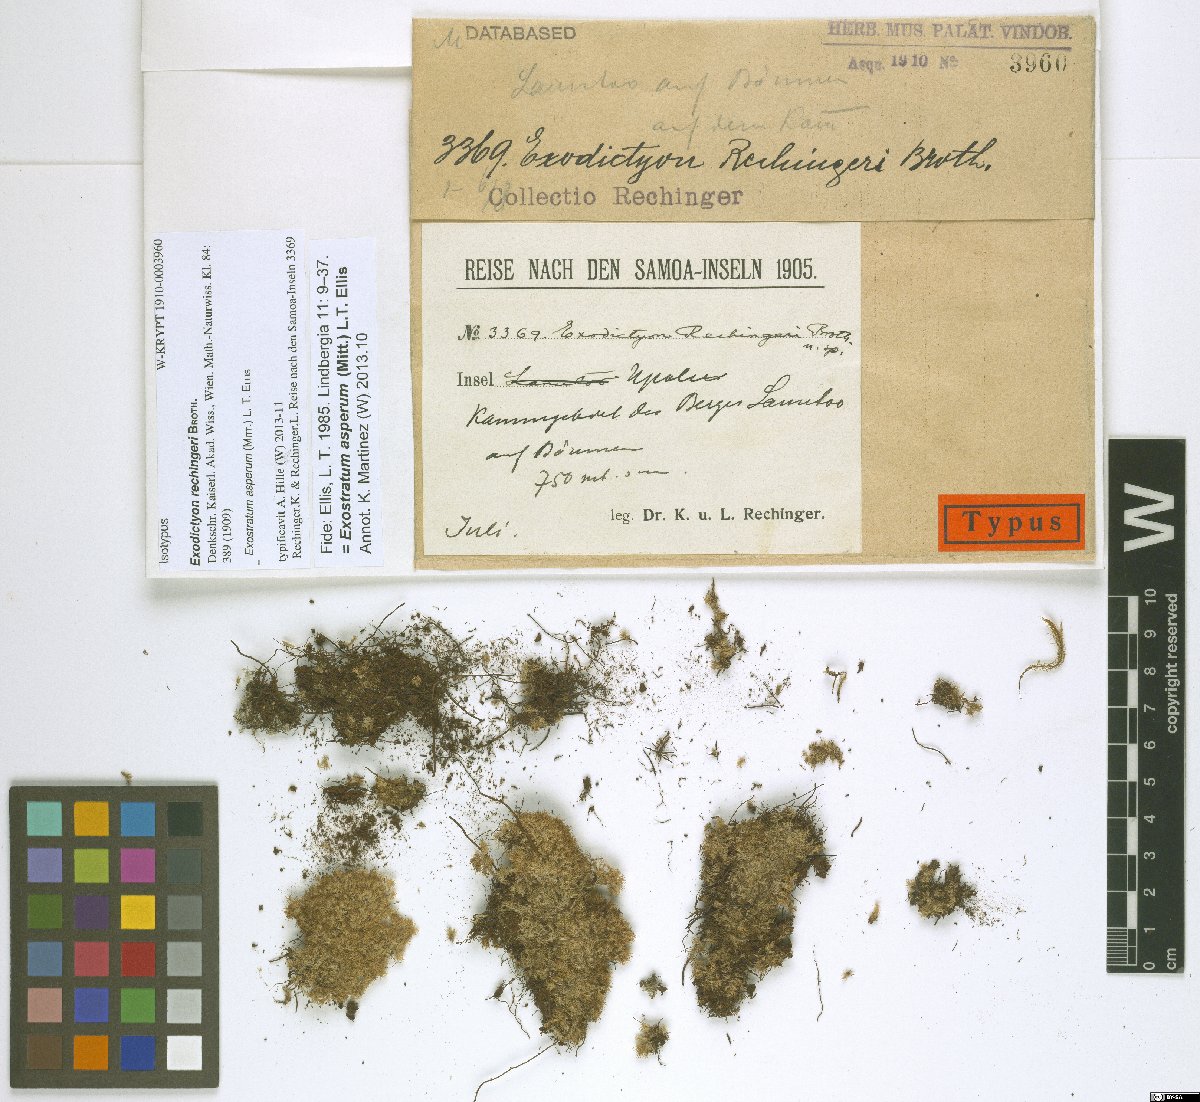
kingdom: Plantae
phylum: Bryophyta
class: Bryopsida
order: Dicranales
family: Calymperaceae
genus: Exostratum
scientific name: Exostratum asperum
